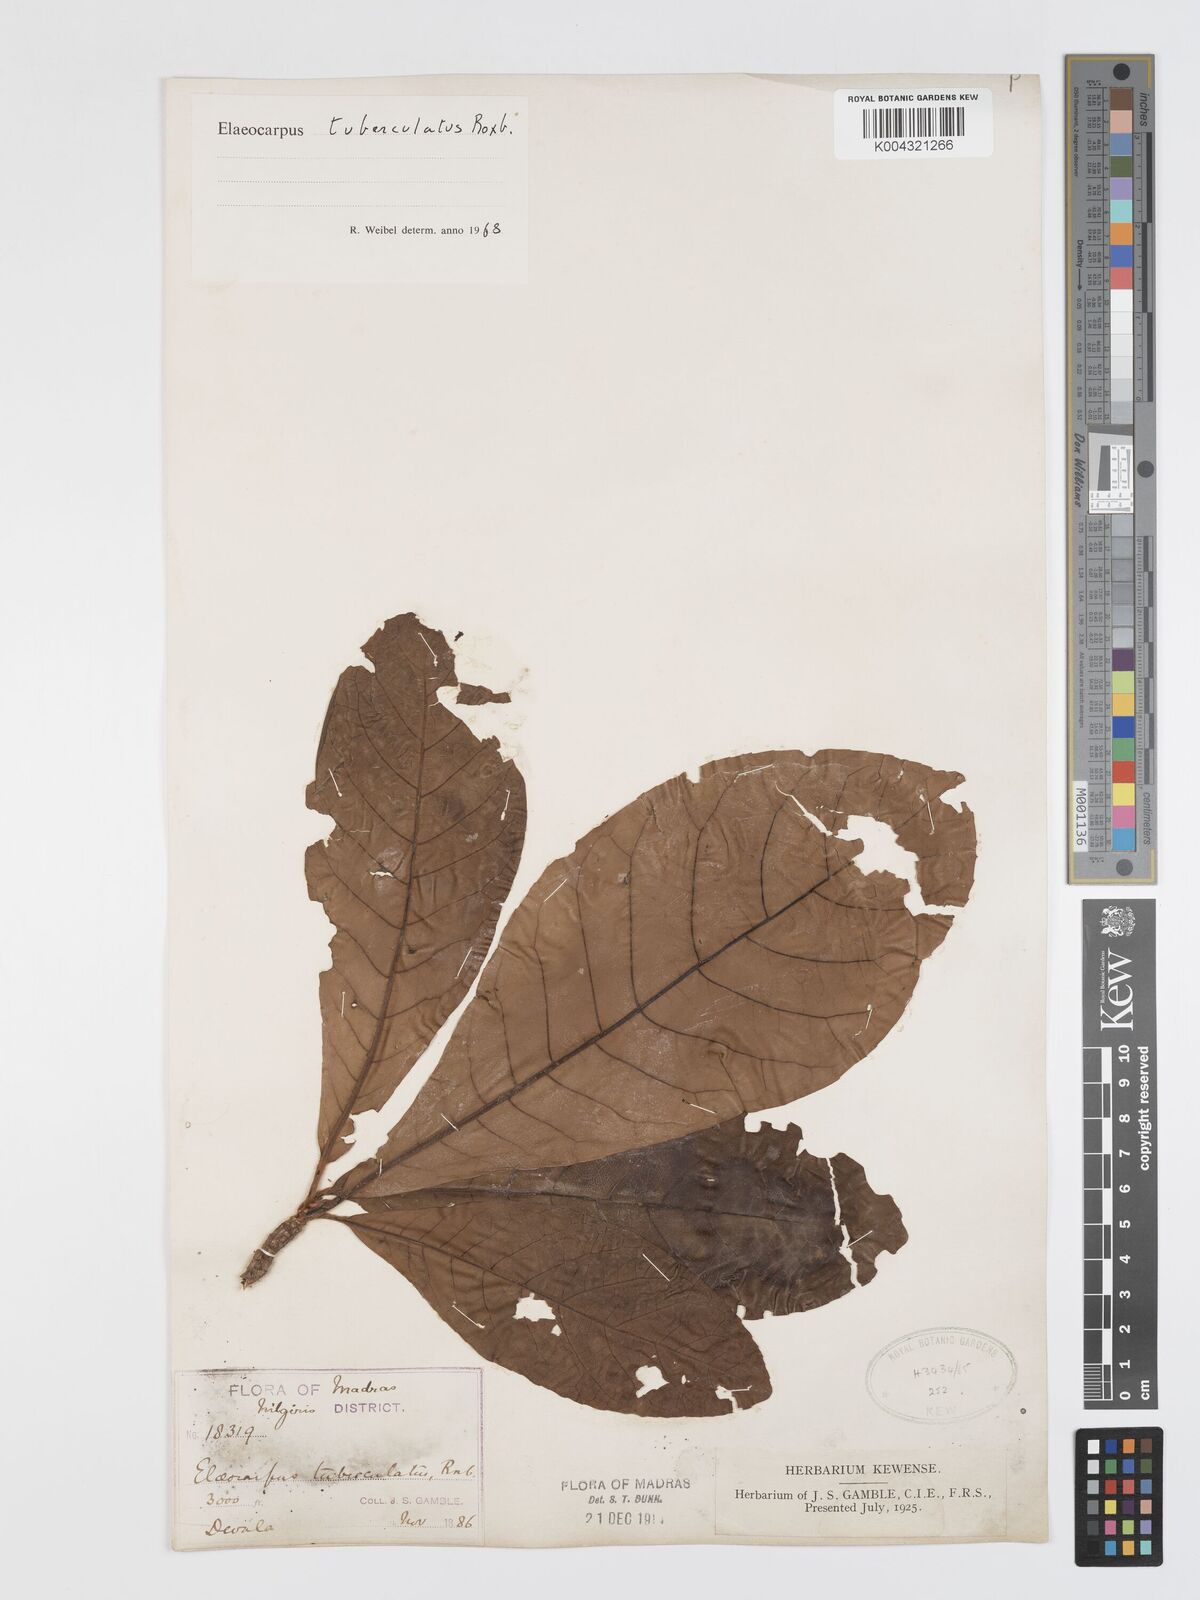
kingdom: Plantae
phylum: Tracheophyta
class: Magnoliopsida
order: Oxalidales
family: Elaeocarpaceae
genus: Elaeocarpus
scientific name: Elaeocarpus tuberculatus
